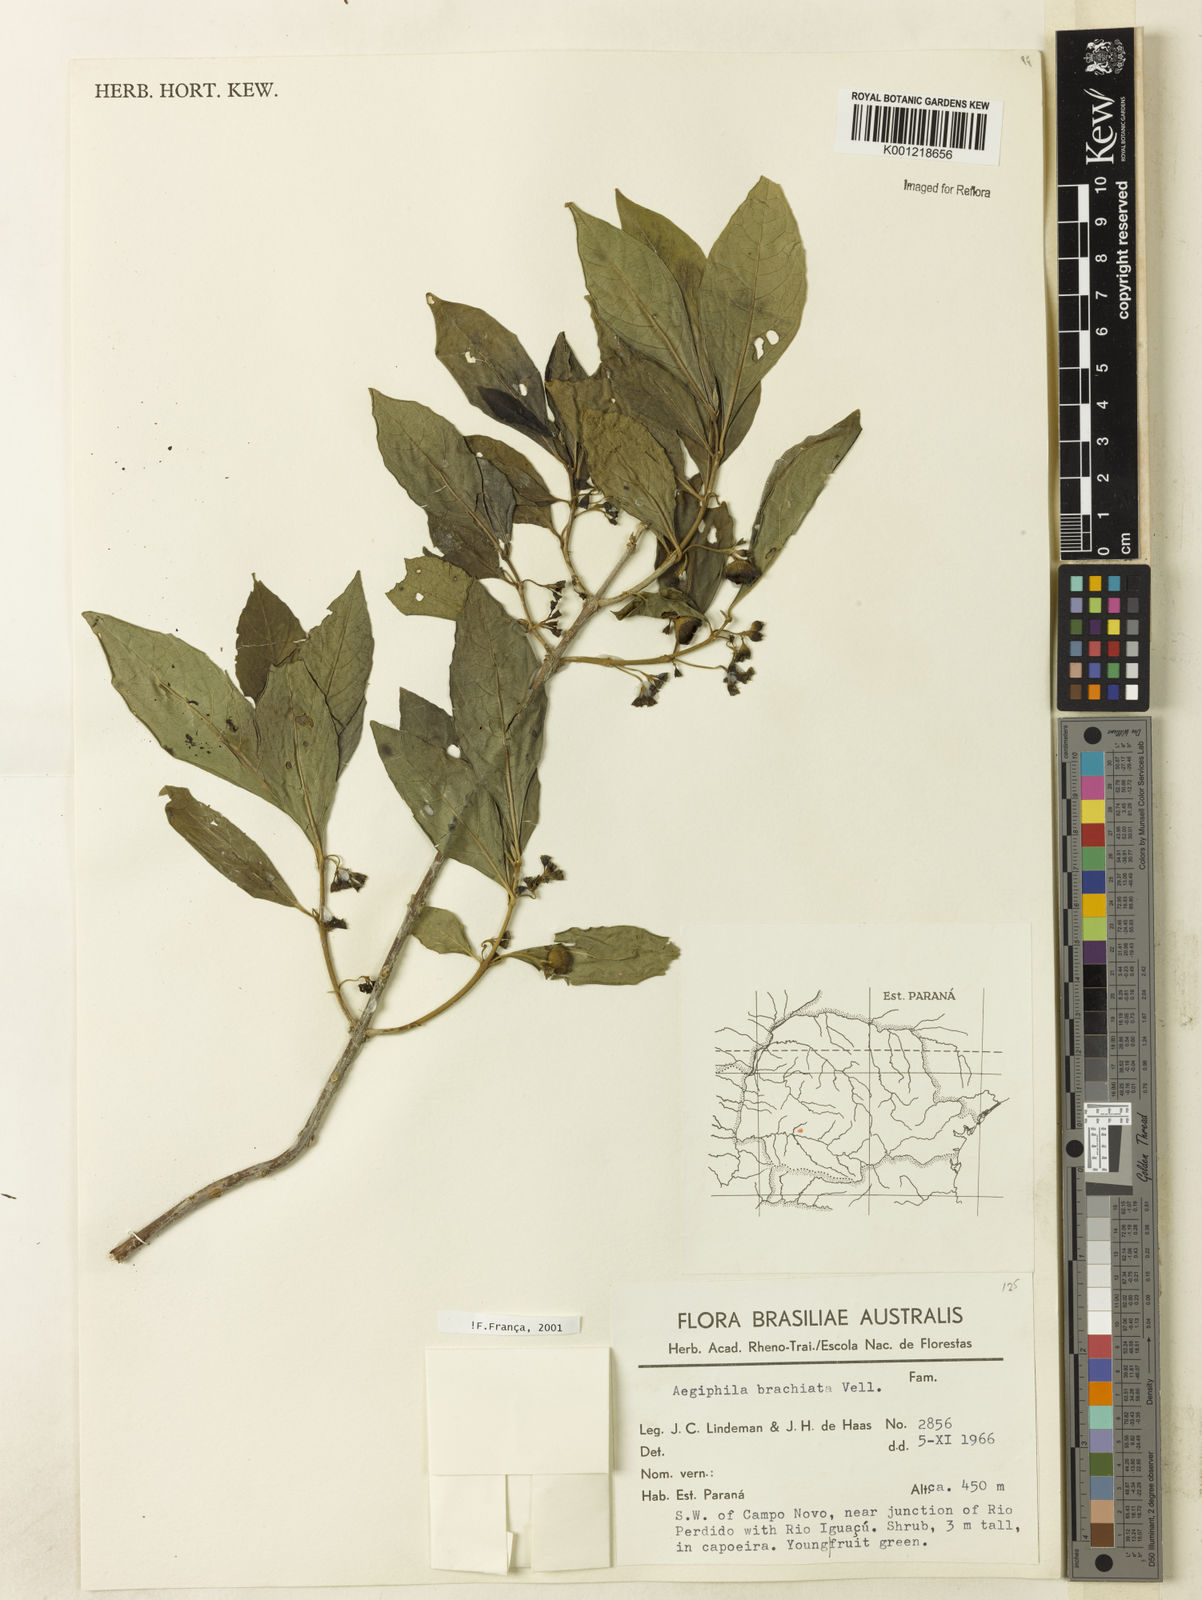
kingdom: Plantae
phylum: Tracheophyta
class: Magnoliopsida
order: Lamiales
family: Lamiaceae
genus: Aegiphila
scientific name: Aegiphila brachiata
